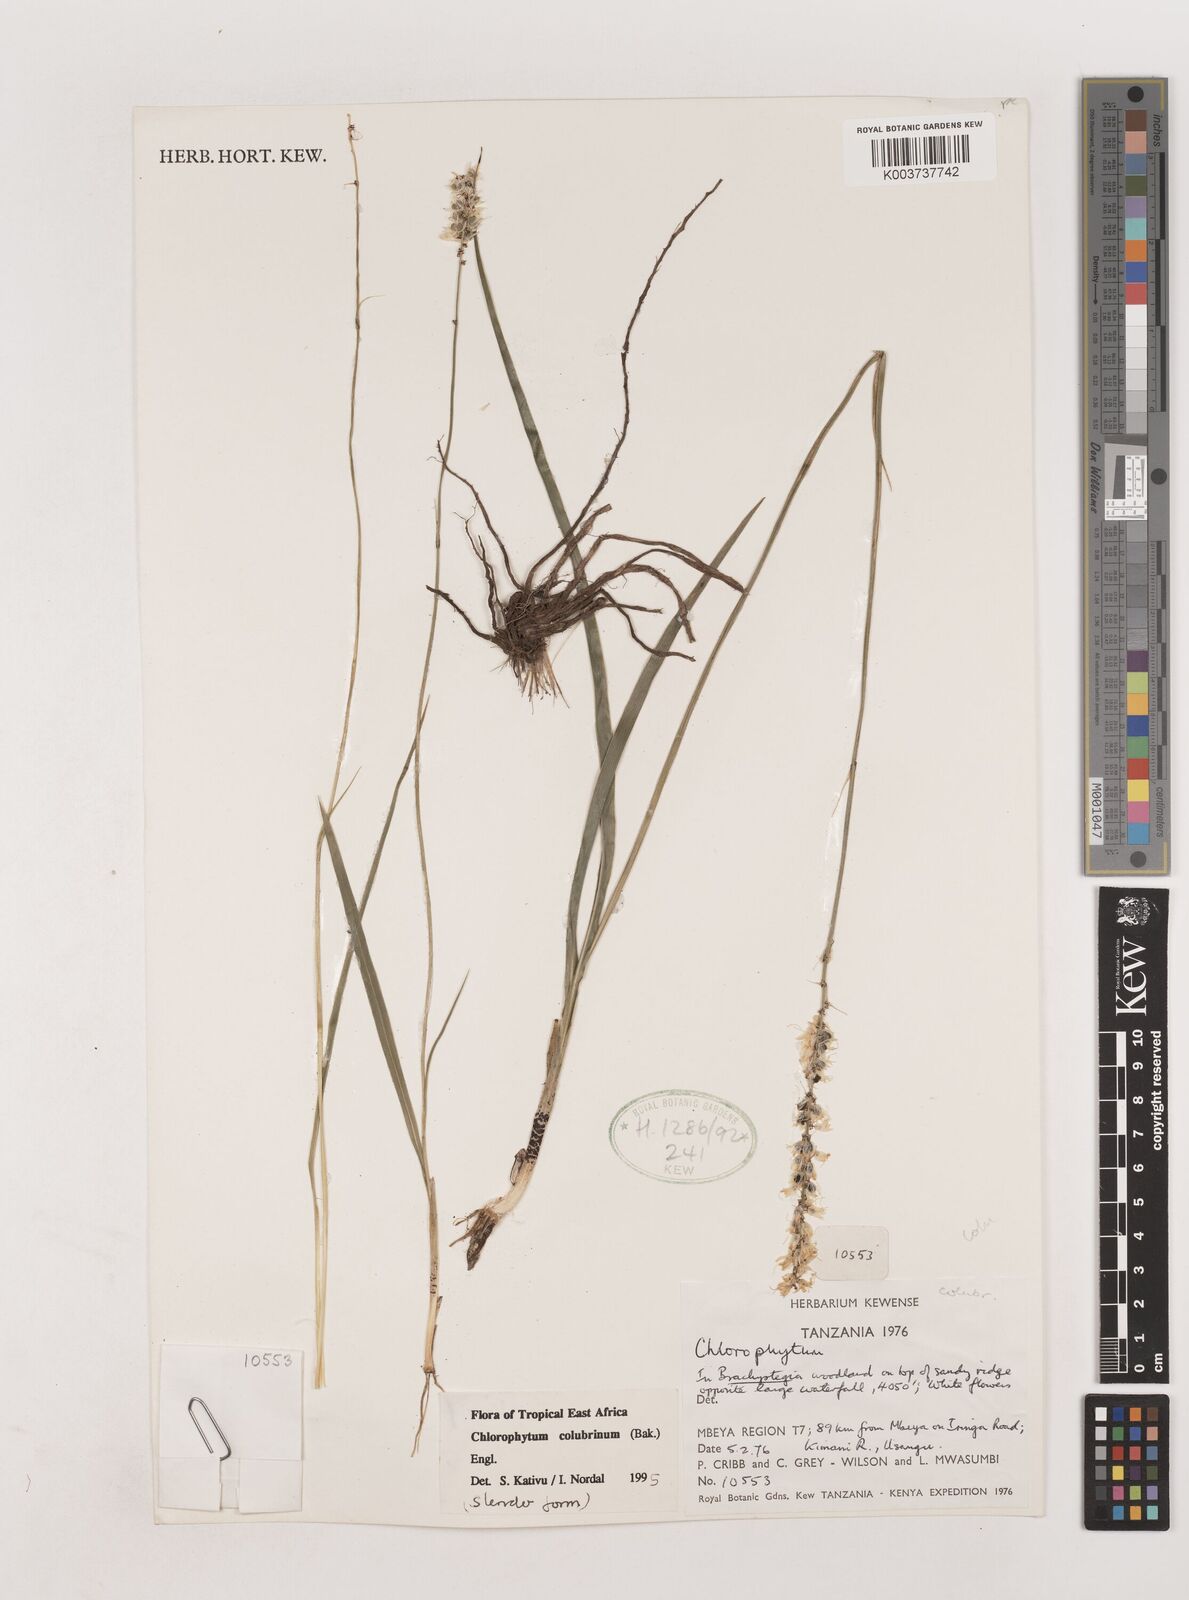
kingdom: Plantae
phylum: Tracheophyta
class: Liliopsida
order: Asparagales
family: Asparagaceae
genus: Chlorophytum
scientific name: Chlorophytum colubrinum
